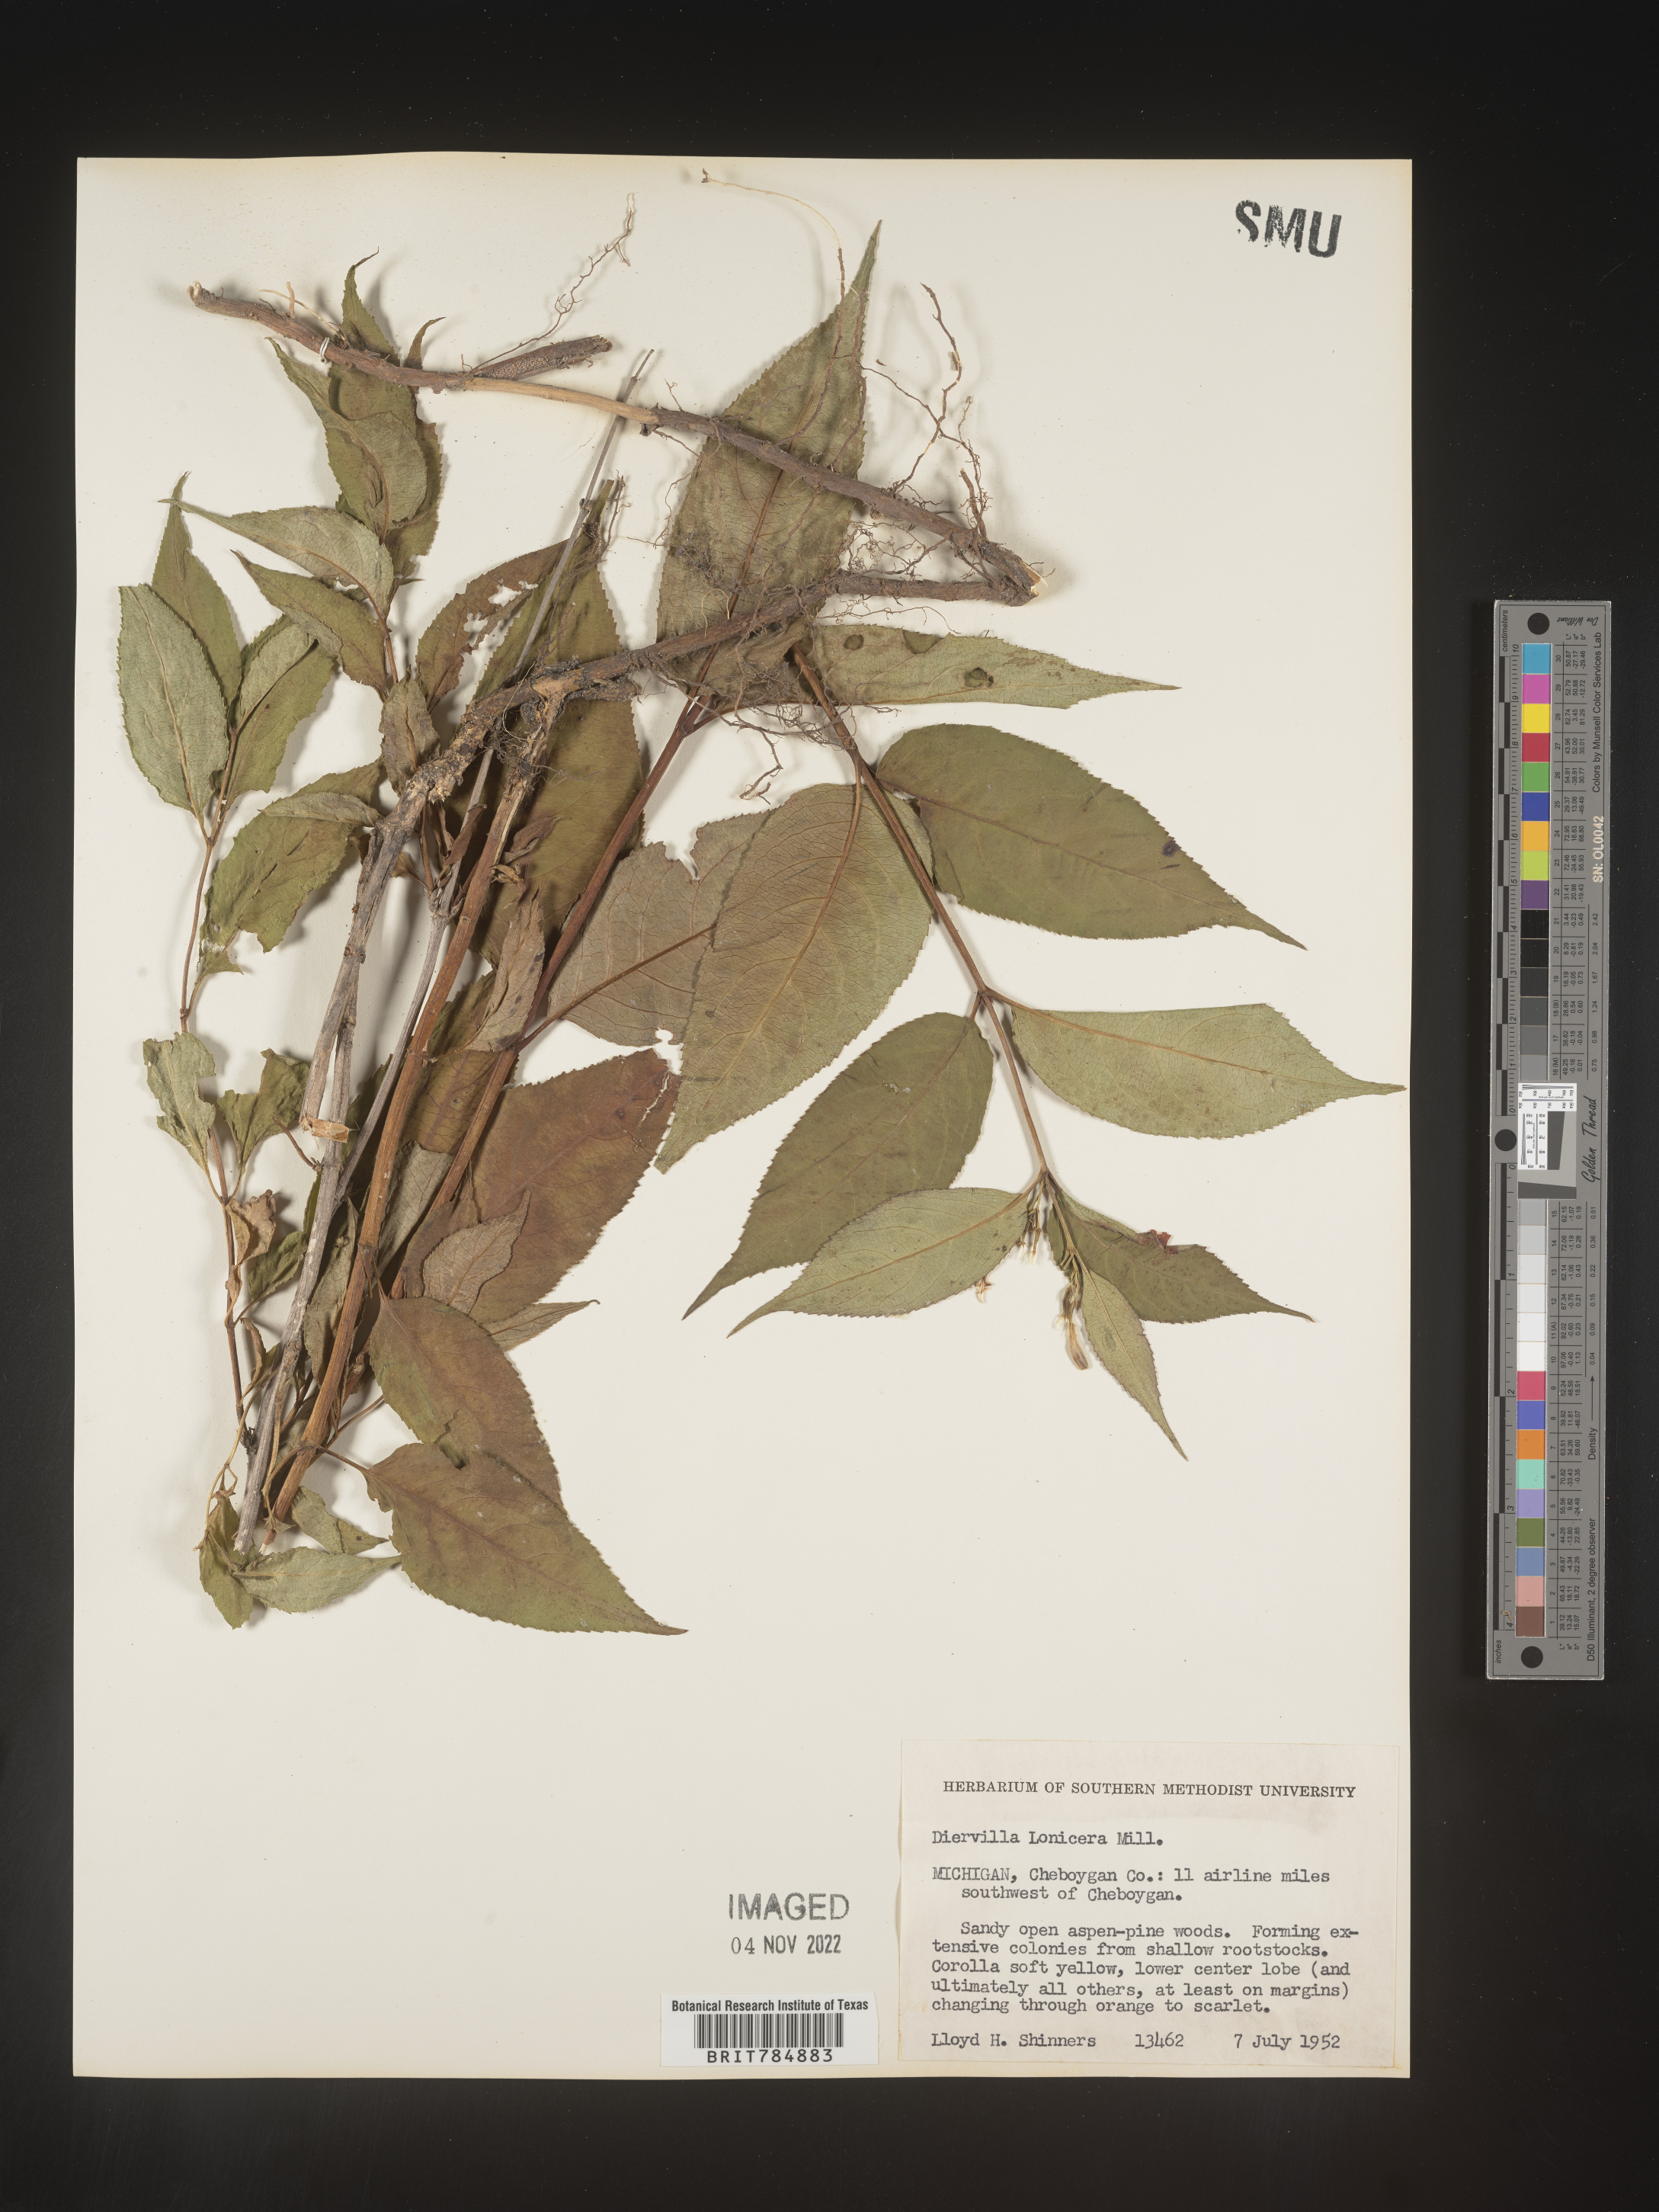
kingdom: Plantae
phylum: Tracheophyta
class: Magnoliopsida
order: Dipsacales
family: Caprifoliaceae
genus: Diervilla
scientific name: Diervilla lonicera
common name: Bush-honeysuckle
